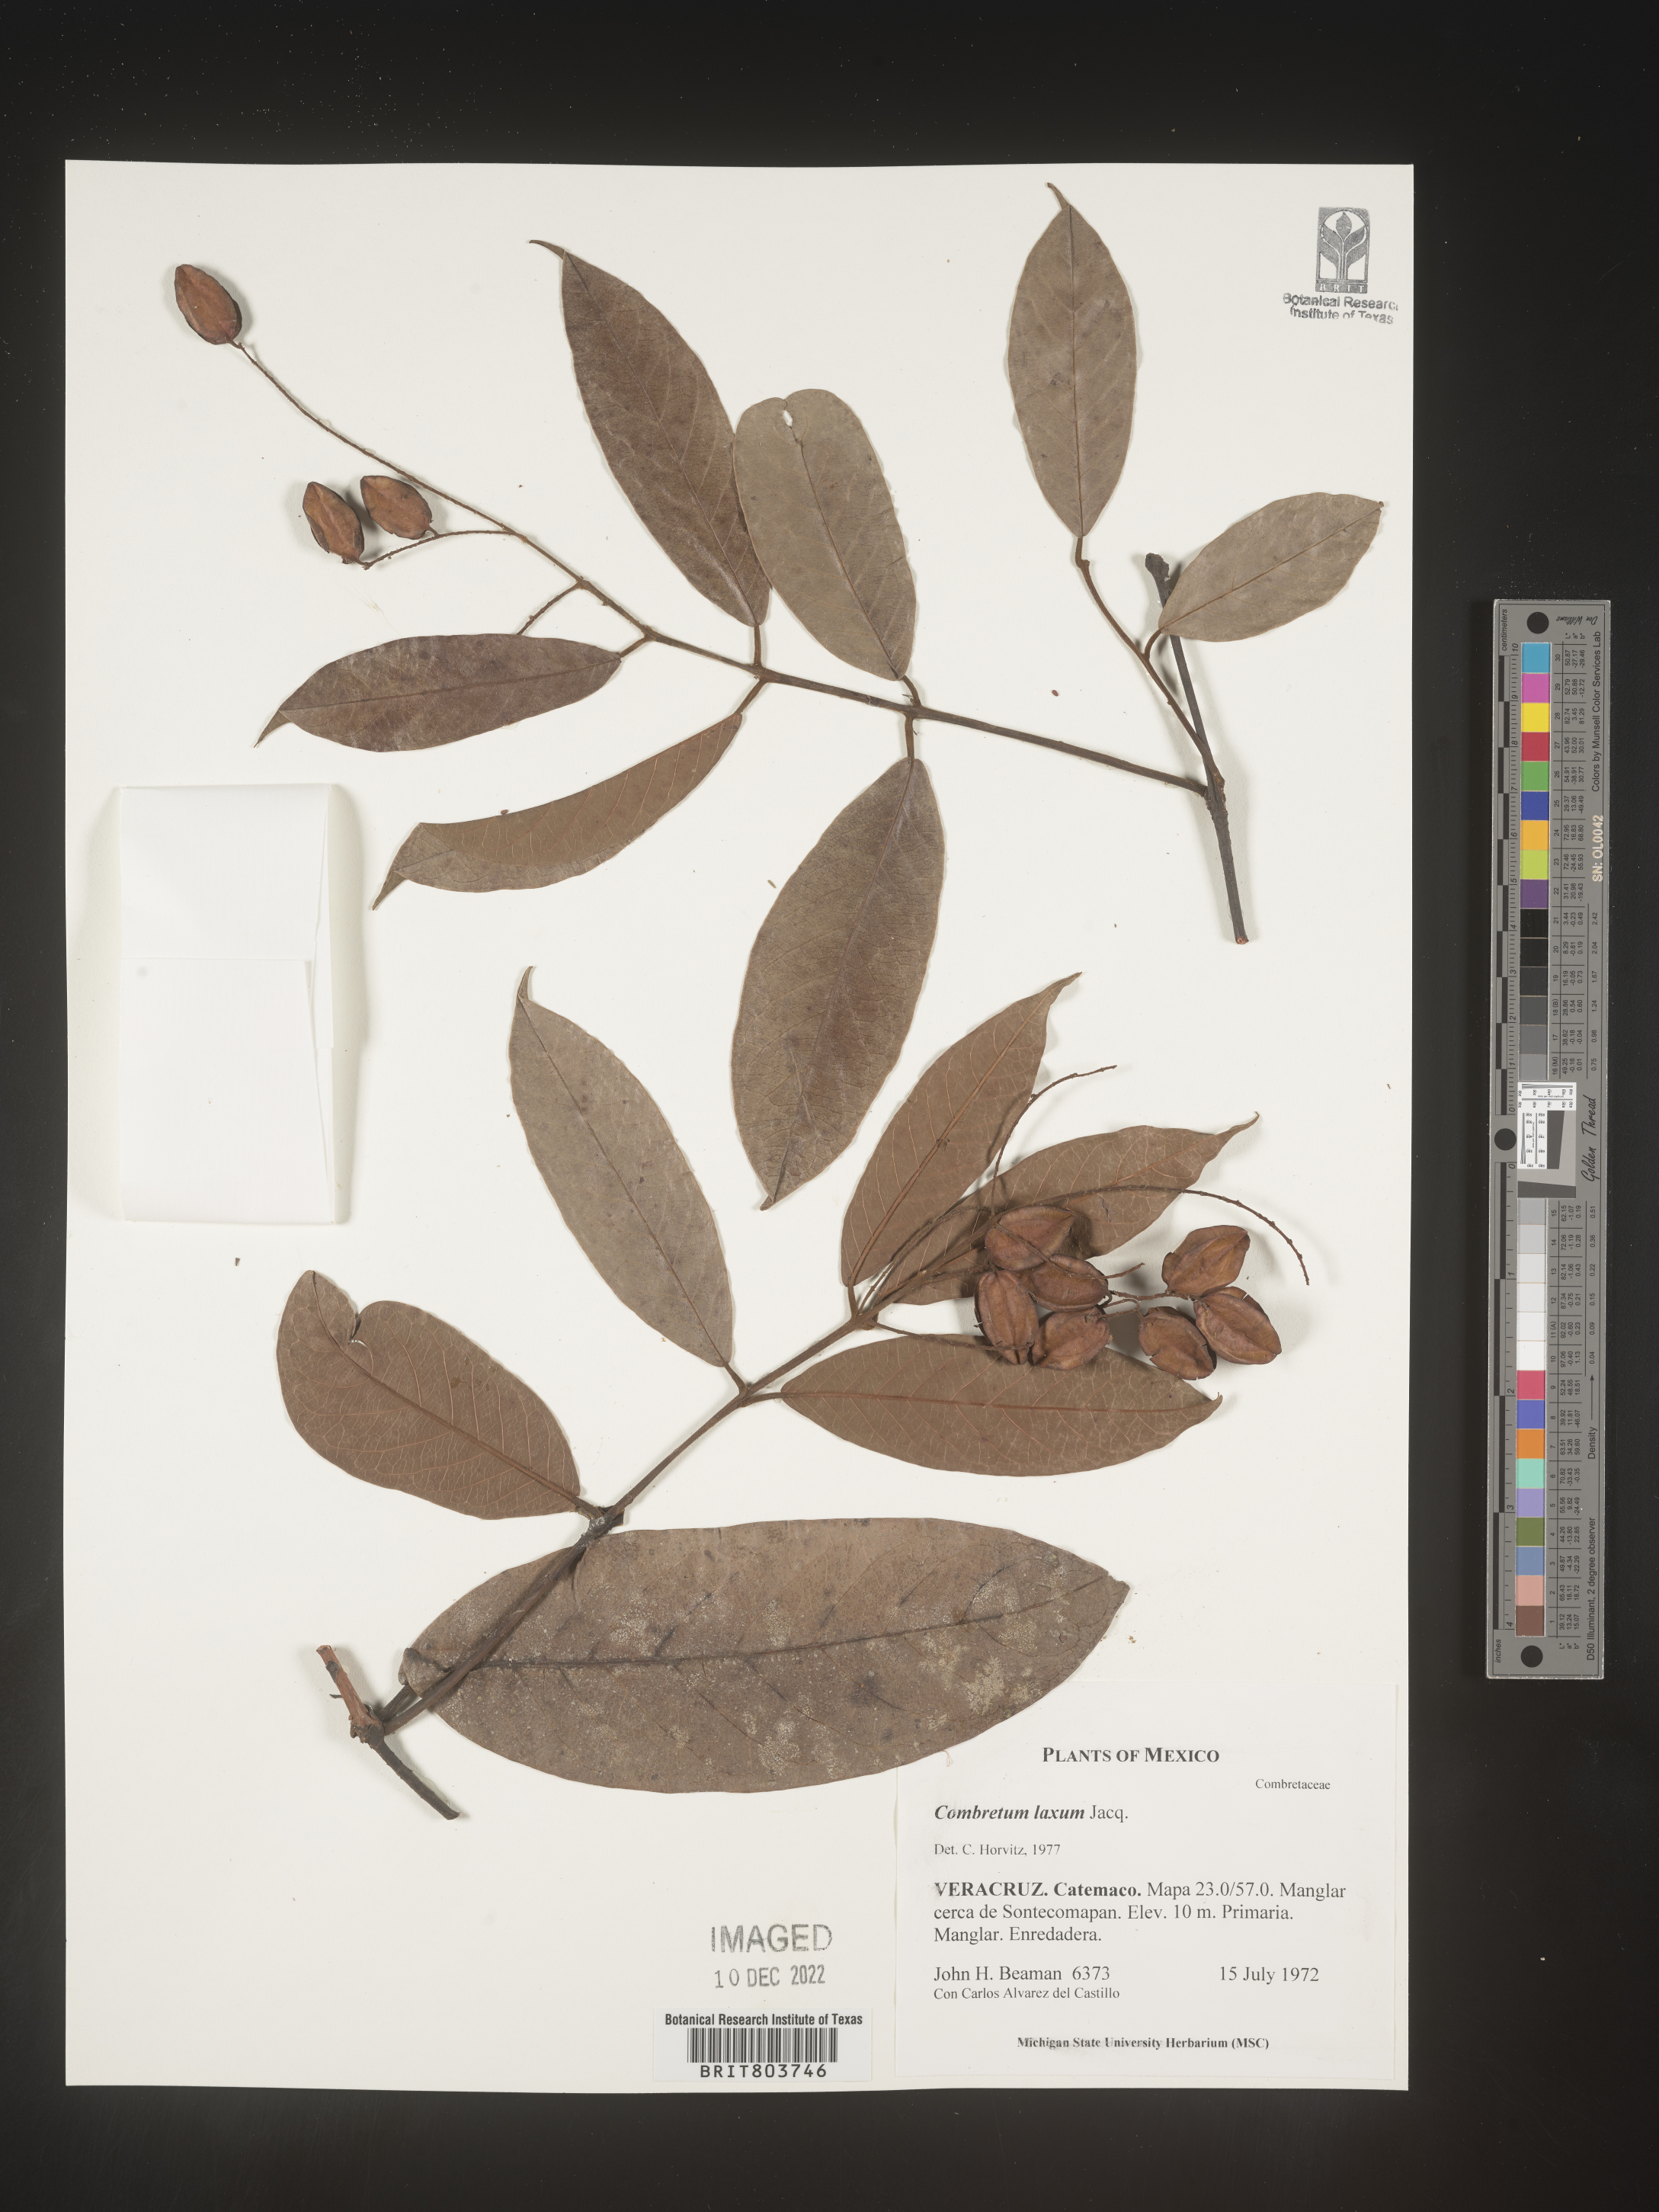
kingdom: Plantae
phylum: Tracheophyta
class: Magnoliopsida
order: Myrtales
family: Combretaceae
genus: Combretum
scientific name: Combretum
